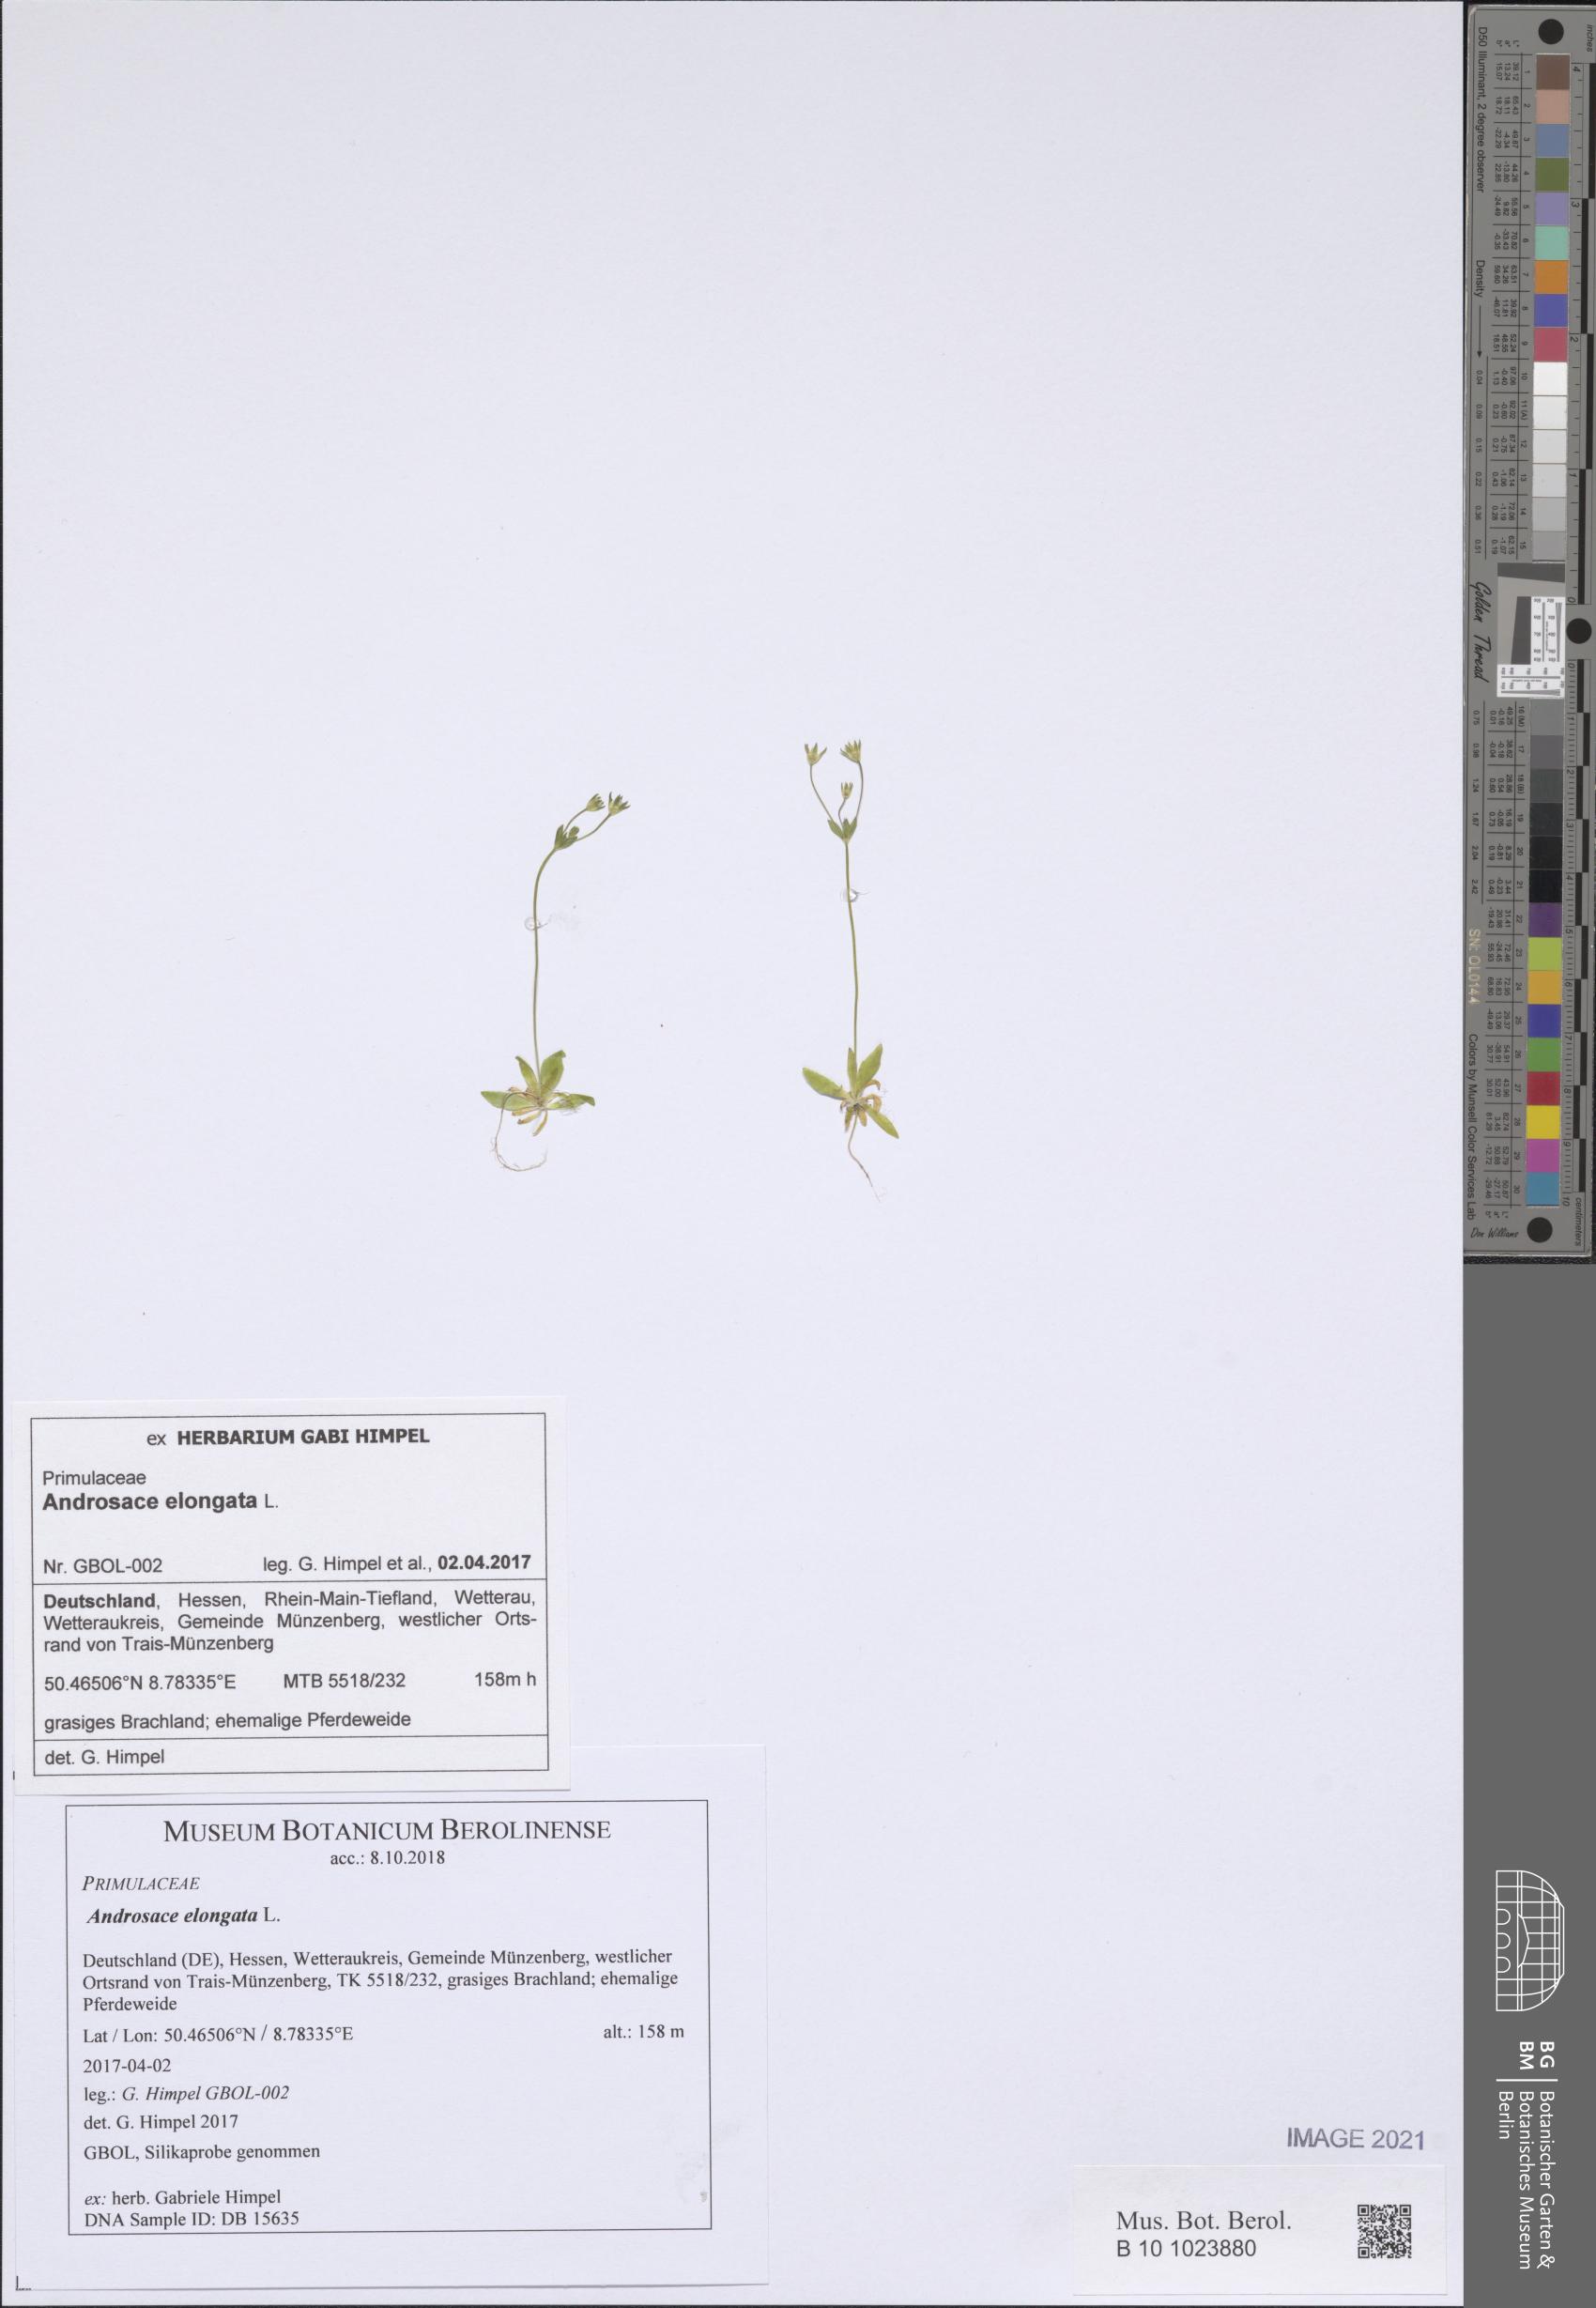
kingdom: Plantae
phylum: Tracheophyta
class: Magnoliopsida
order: Ericales
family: Primulaceae
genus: Androsace
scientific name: Androsace elongata
